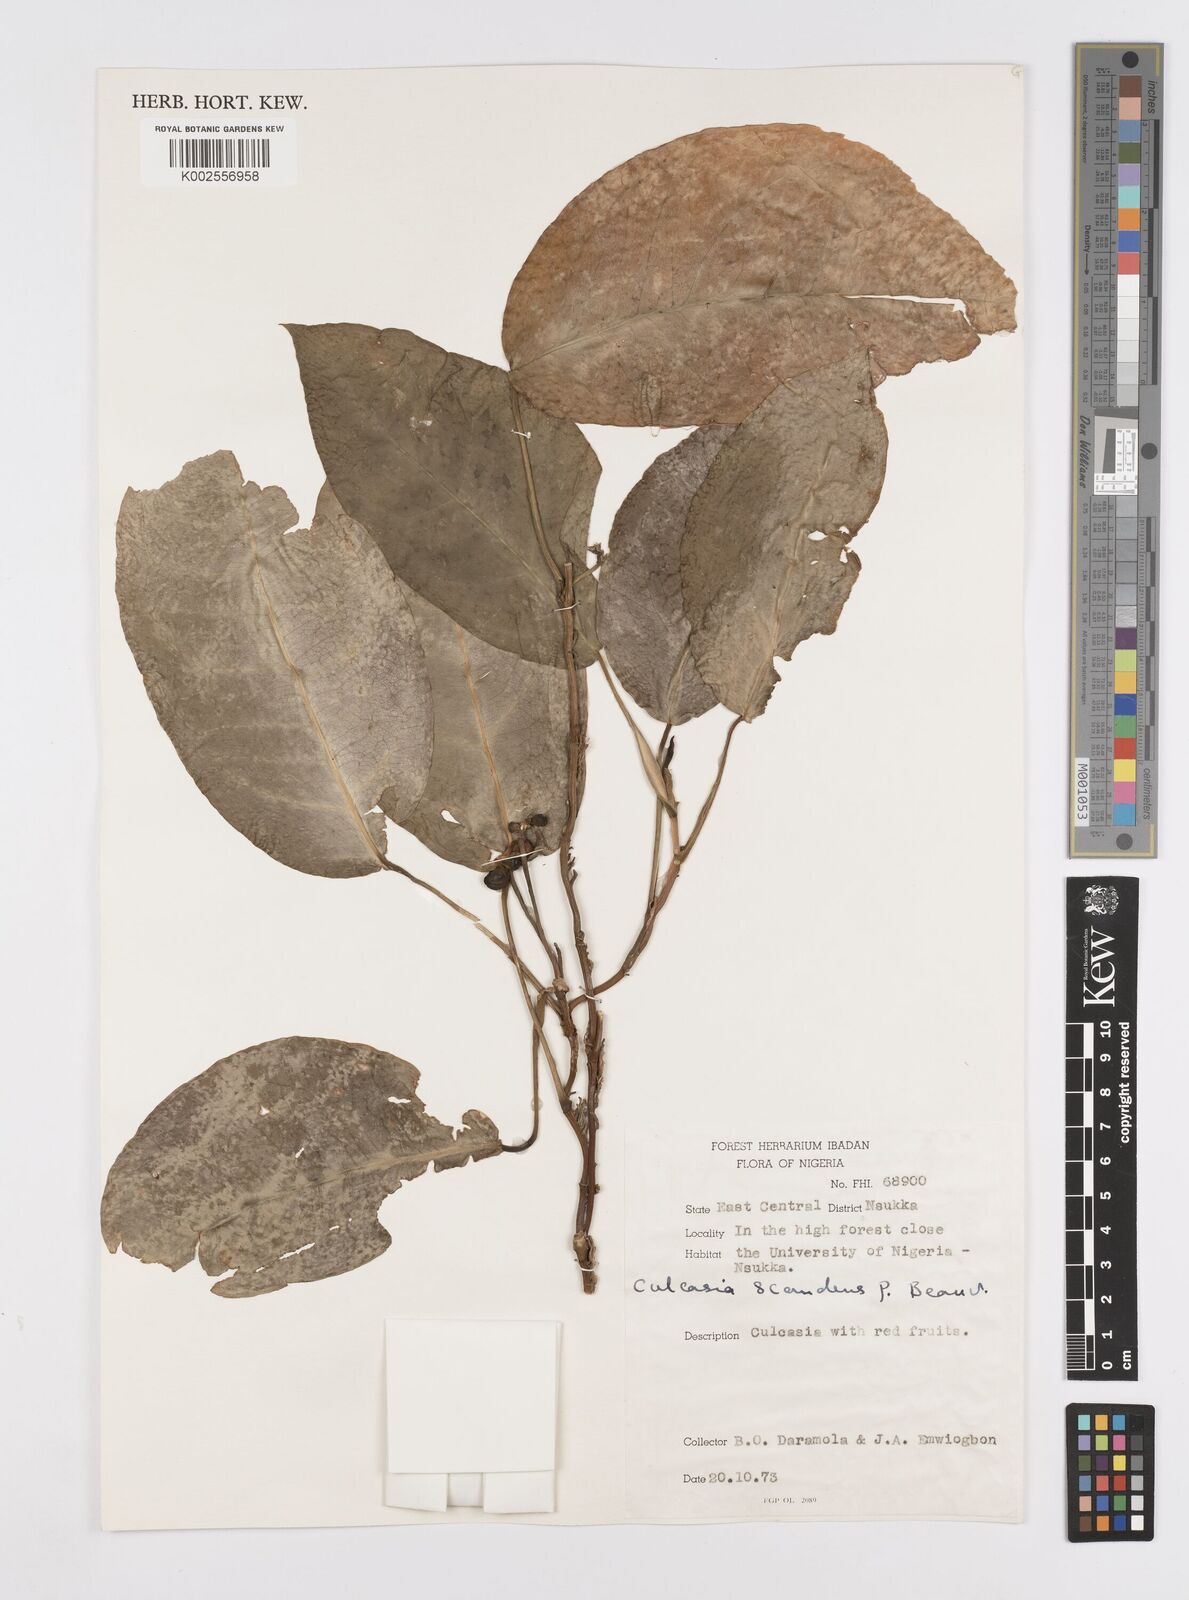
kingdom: Plantae
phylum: Tracheophyta
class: Liliopsida
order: Alismatales
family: Araceae
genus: Culcasia
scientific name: Culcasia scandens
